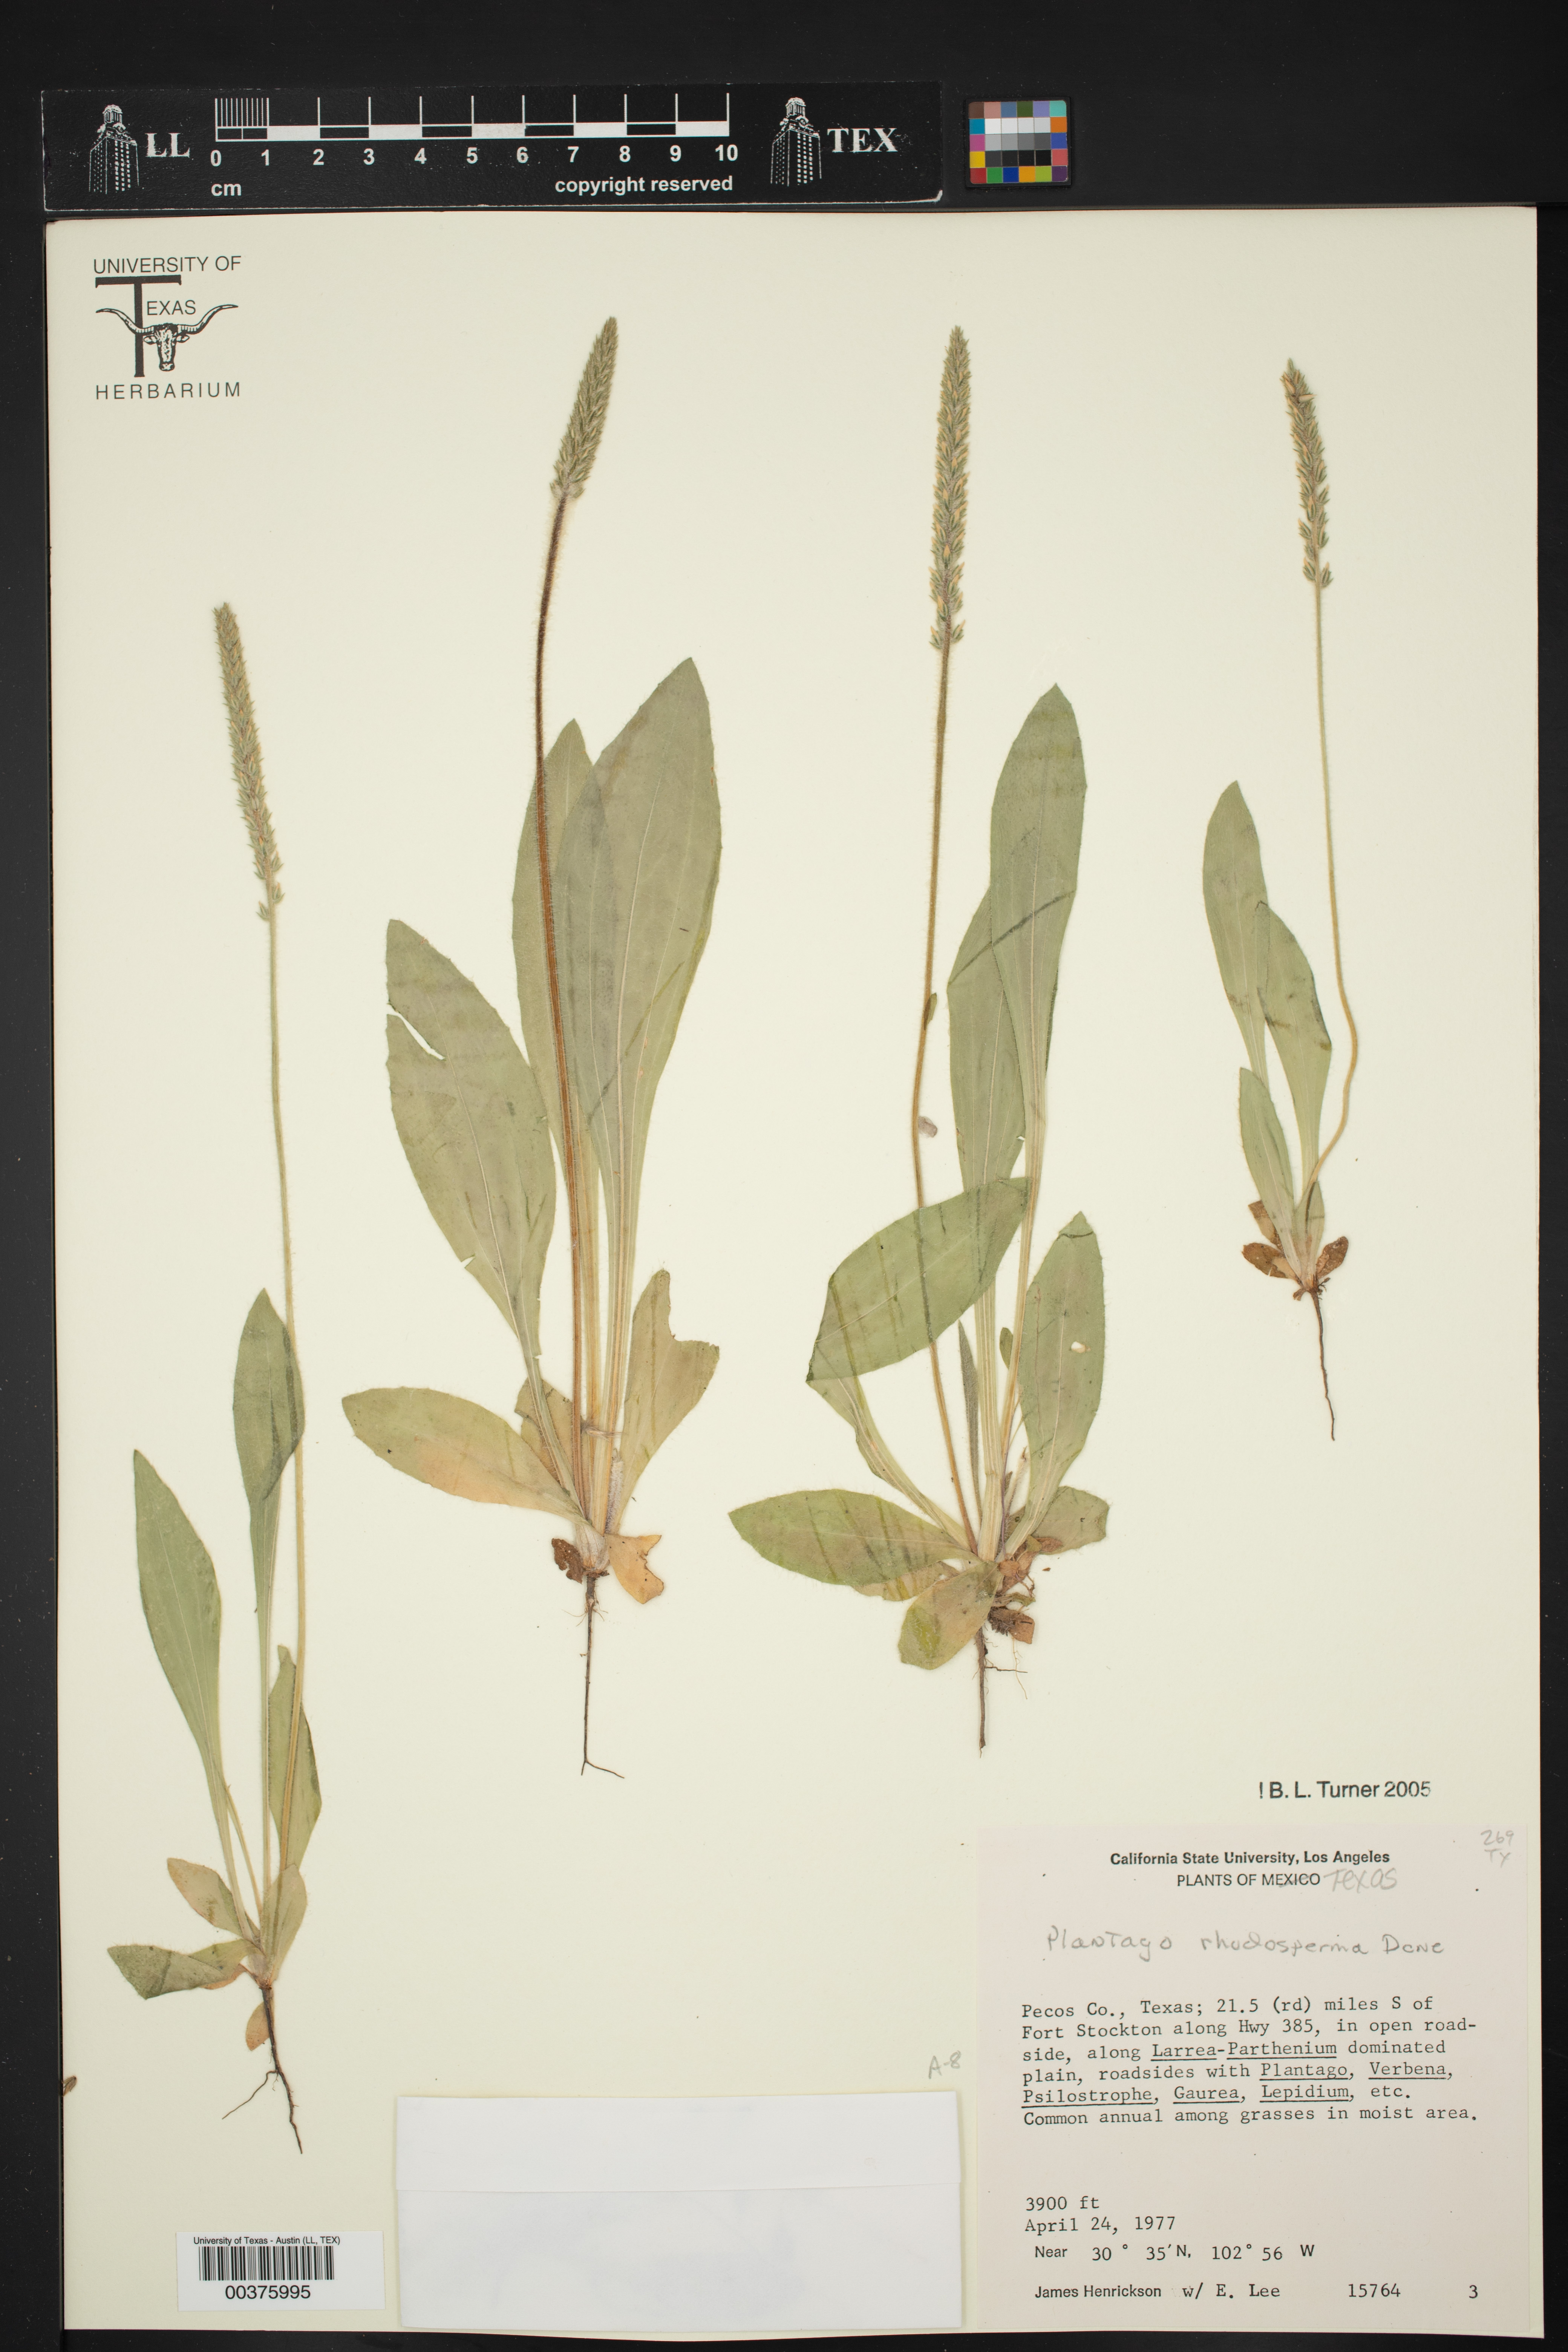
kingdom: Plantae
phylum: Tracheophyta
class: Magnoliopsida
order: Lamiales
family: Plantaginaceae
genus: Plantago
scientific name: Plantago rhodosperma
